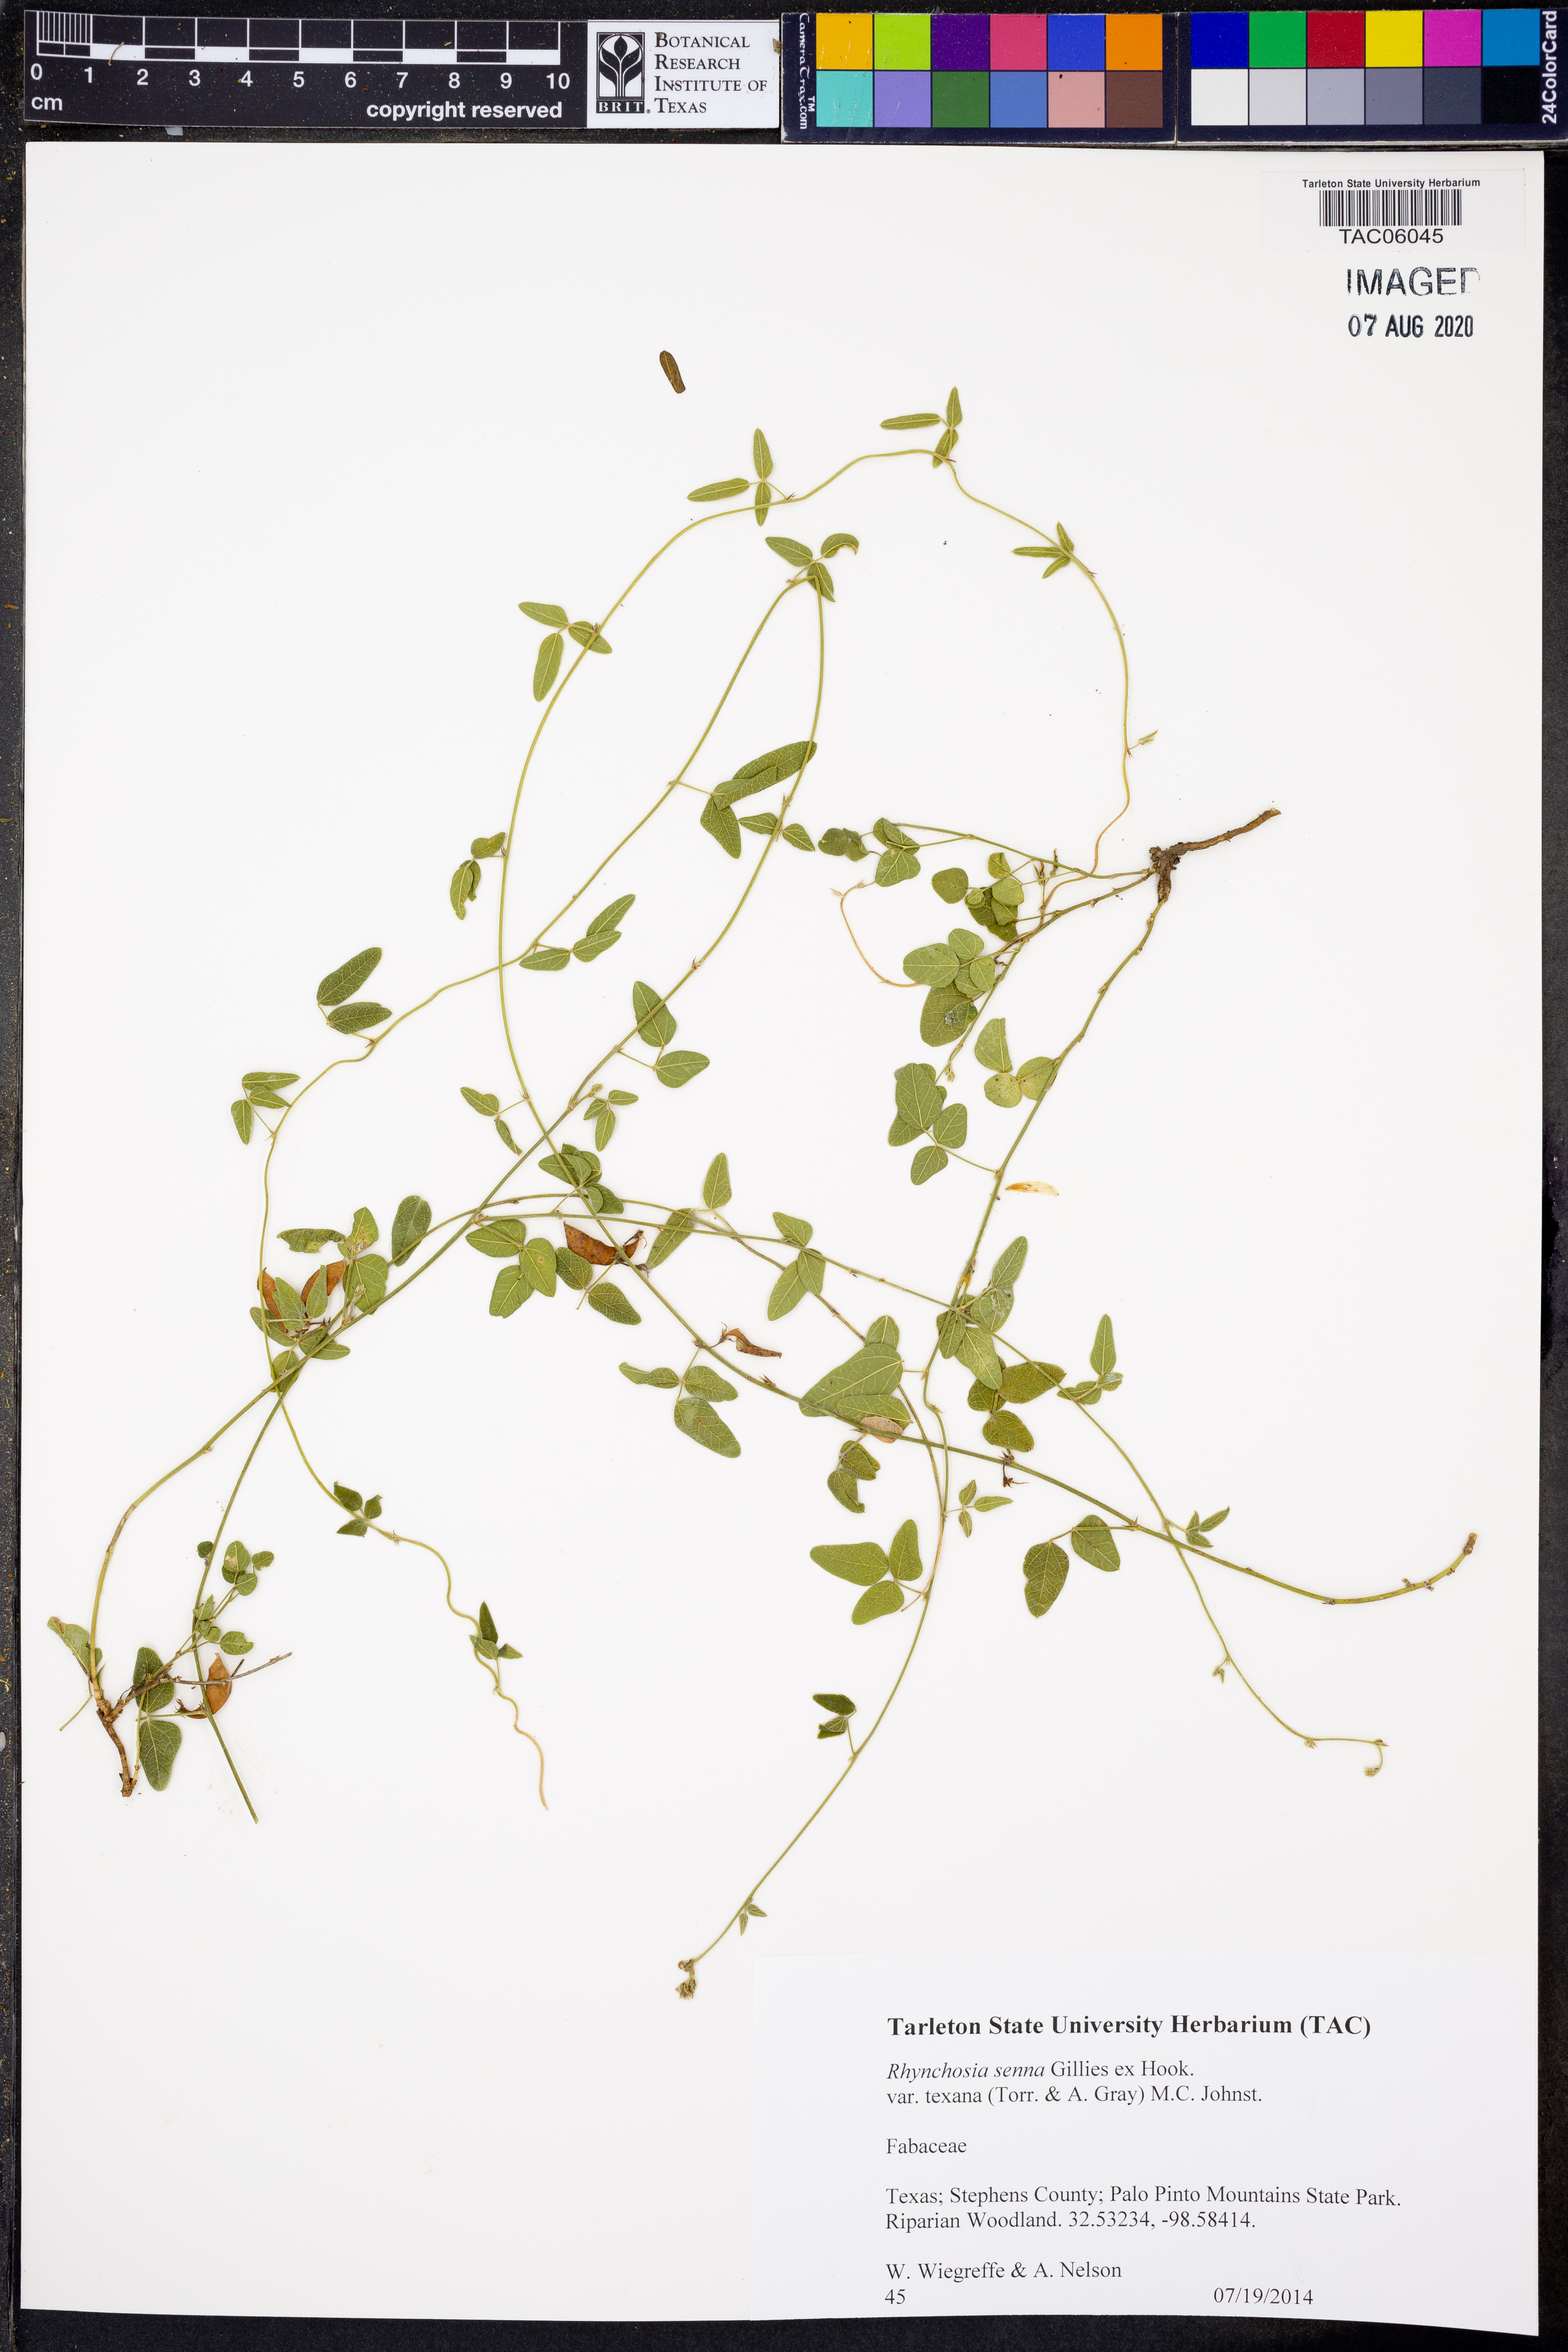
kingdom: Plantae
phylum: Tracheophyta
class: Magnoliopsida
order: Fabales
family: Fabaceae
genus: Rhynchosia
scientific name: Rhynchosia senna
